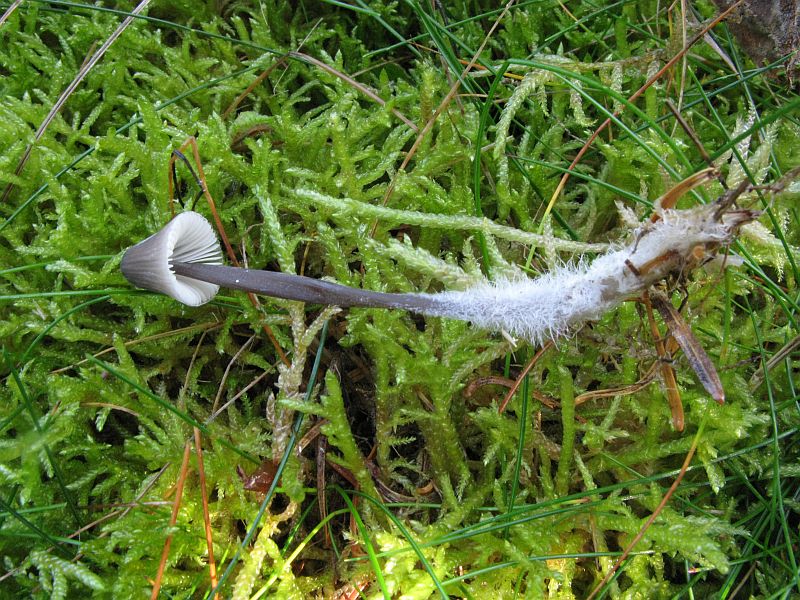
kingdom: Fungi
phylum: Basidiomycota
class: Agaricomycetes
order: Agaricales
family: Mycenaceae
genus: Mycena
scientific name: Mycena leptocephala
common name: klor-huesvamp
